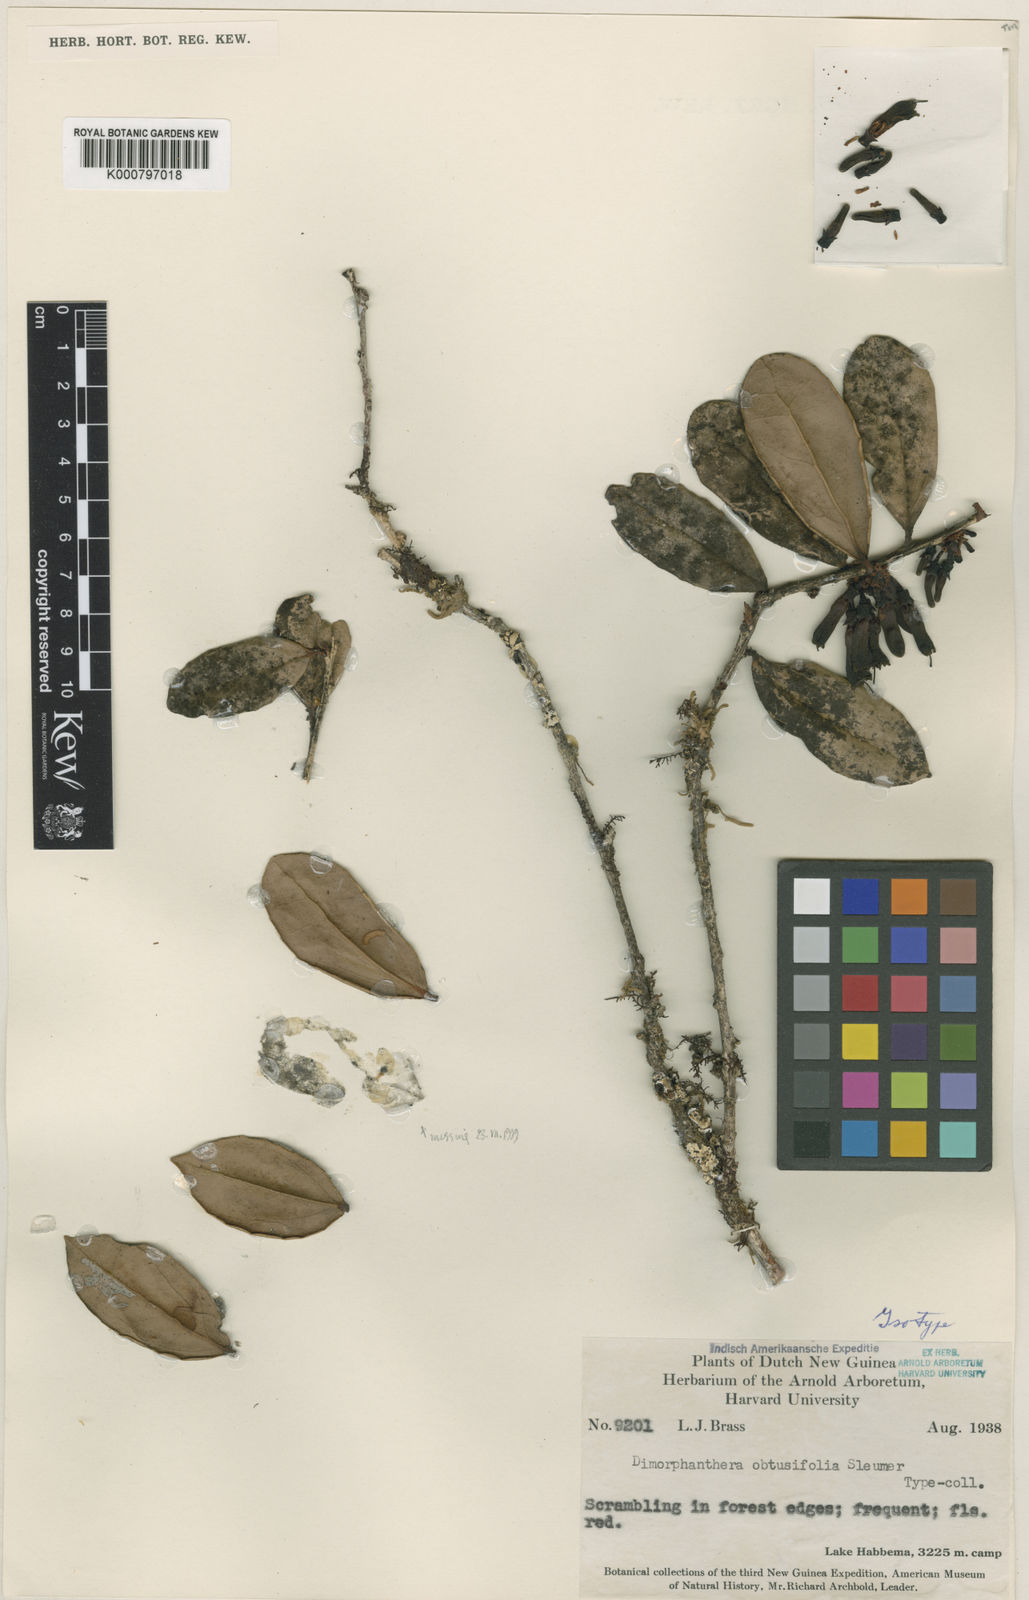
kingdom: Plantae
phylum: Tracheophyta
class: Magnoliopsida
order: Ericales
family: Ericaceae
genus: Dimorphanthera
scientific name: Dimorphanthera obtusifolia
